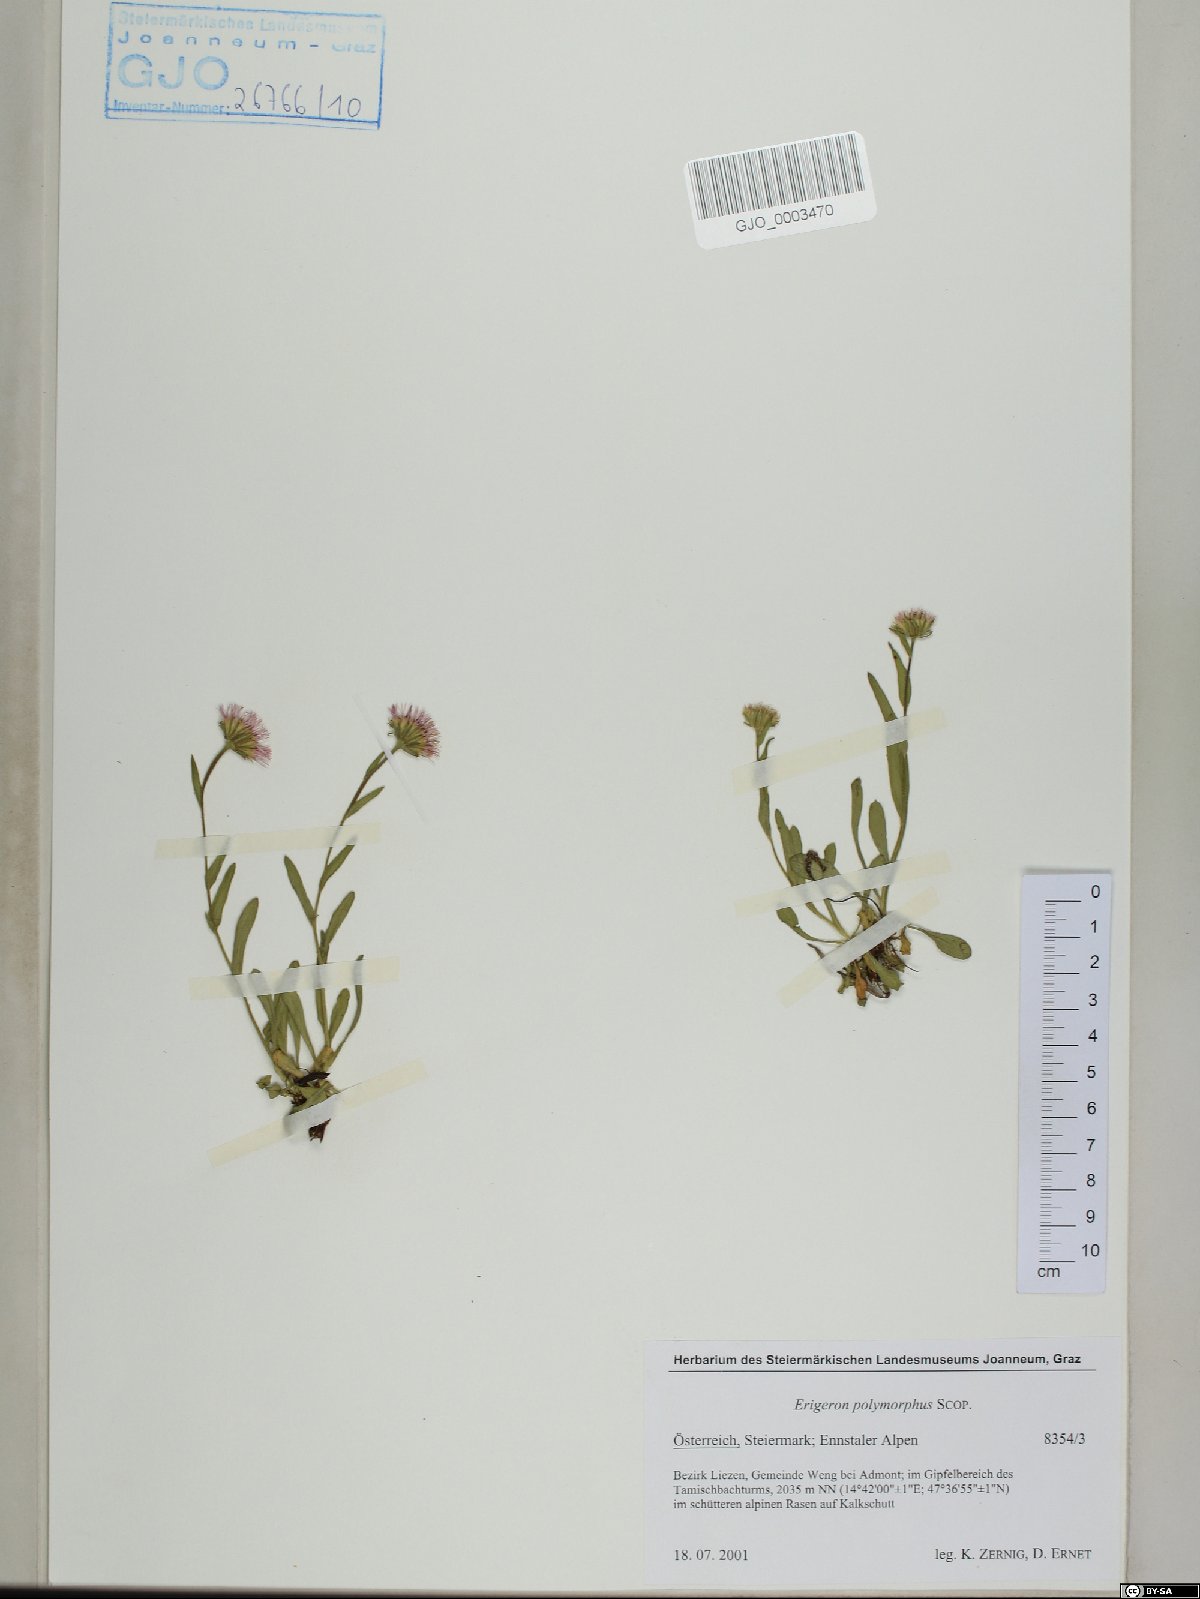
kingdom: Plantae
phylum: Tracheophyta
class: Magnoliopsida
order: Asterales
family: Asteraceae
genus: Erigeron
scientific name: Erigeron alpinus
